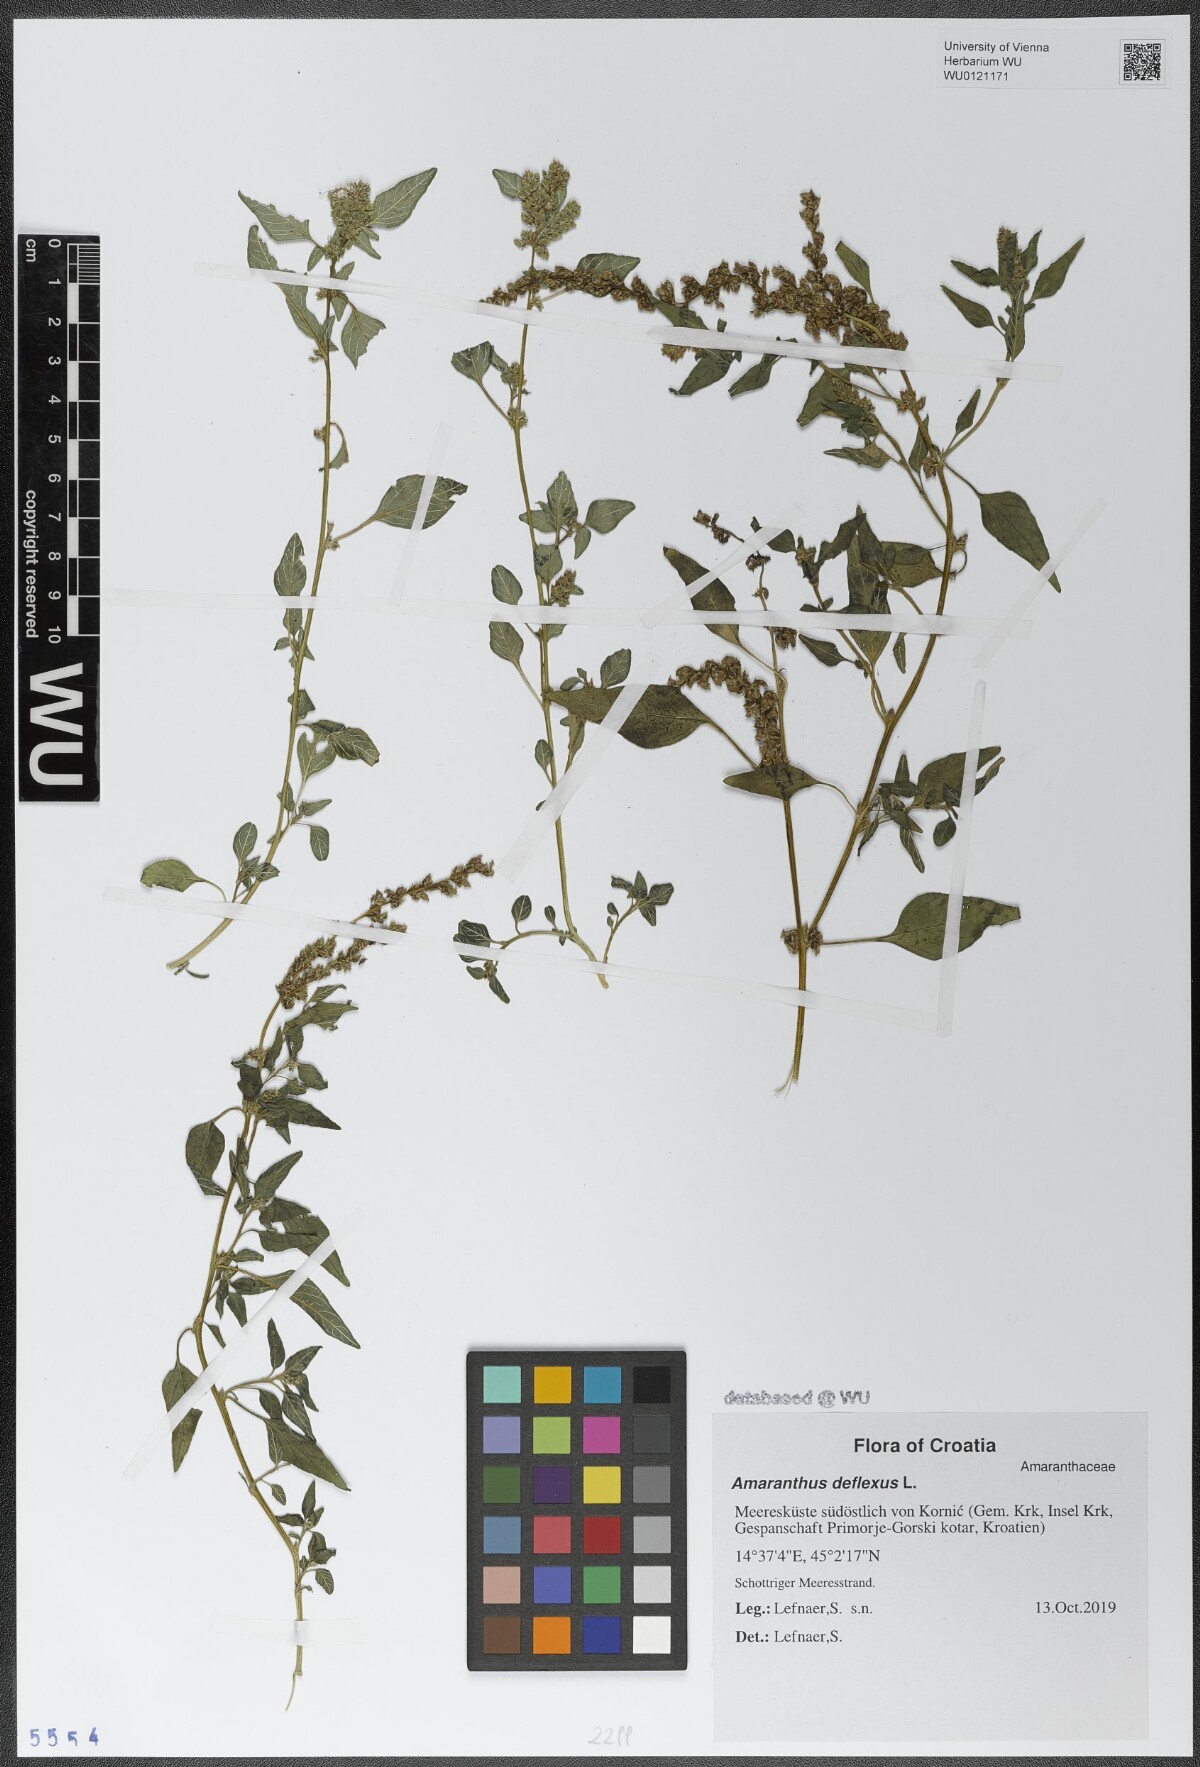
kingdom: Plantae
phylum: Tracheophyta
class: Magnoliopsida
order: Caryophyllales
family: Amaranthaceae
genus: Amaranthus
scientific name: Amaranthus deflexus
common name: Perennial pigweed
